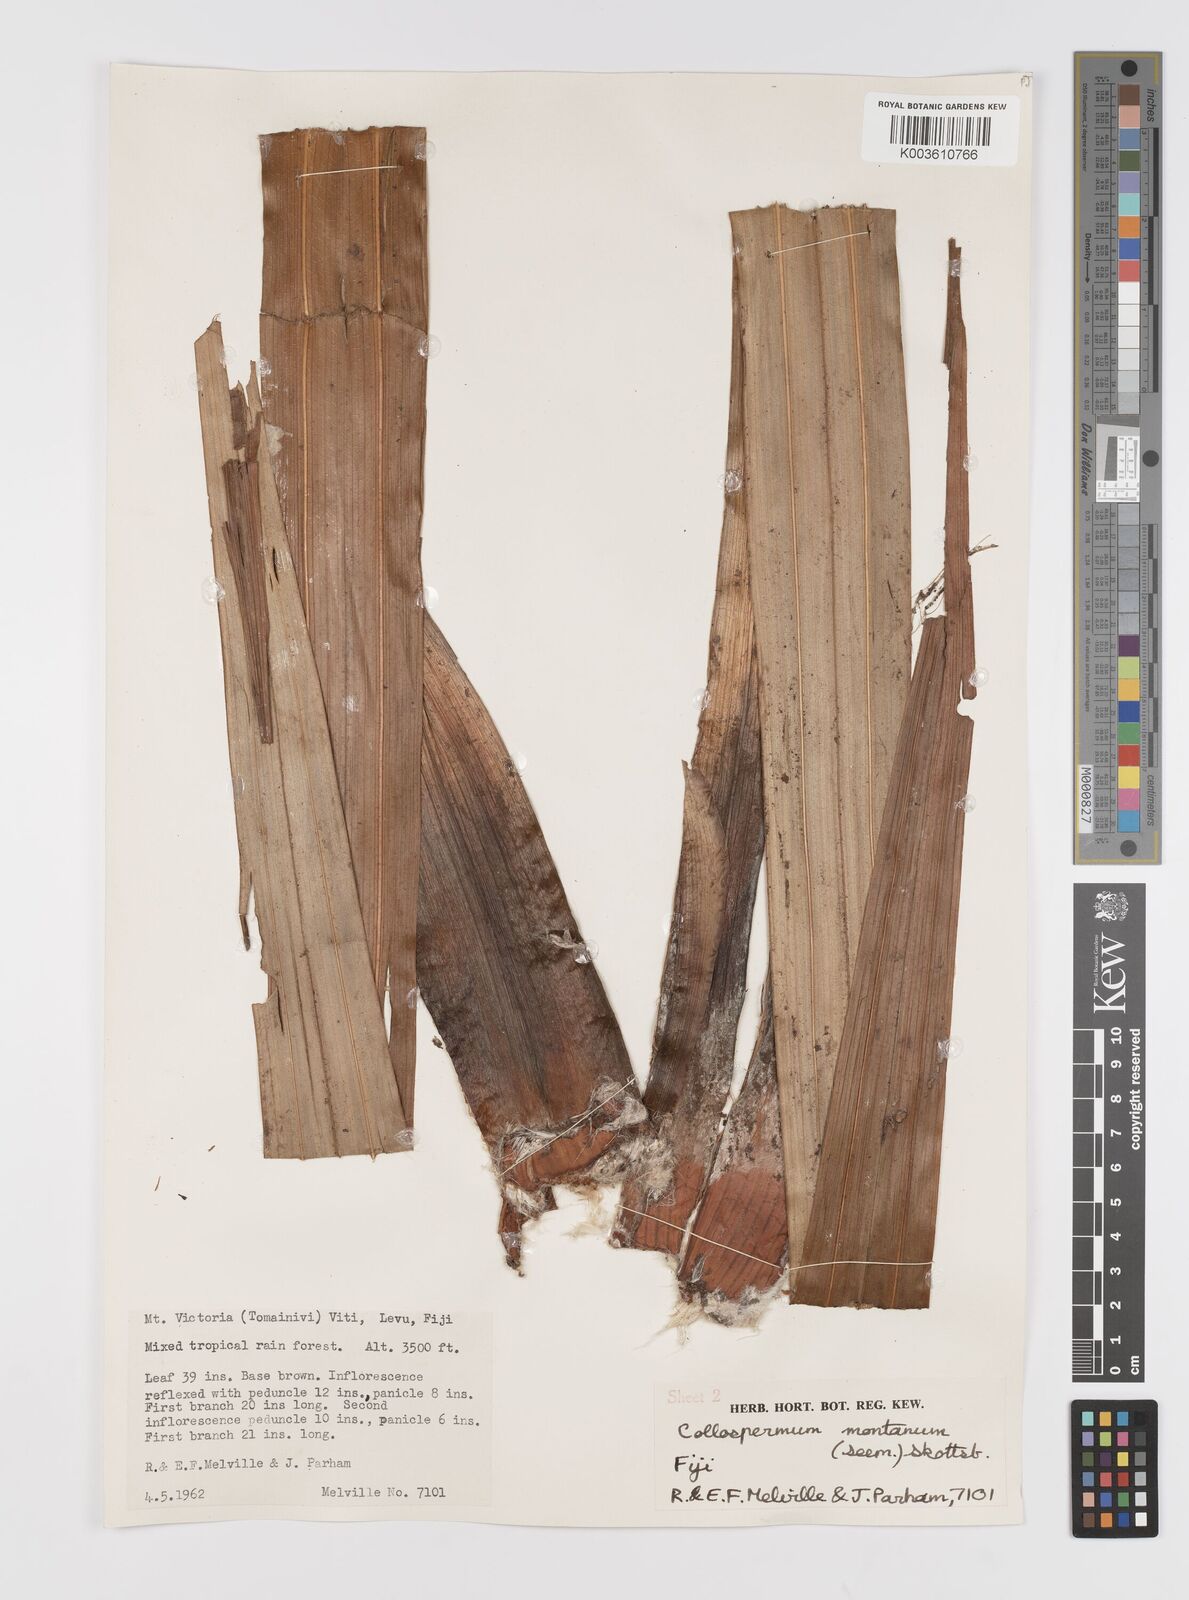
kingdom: Plantae
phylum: Tracheophyta
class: Liliopsida
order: Asparagales
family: Asteliaceae
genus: Astelia
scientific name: Astelia montana
